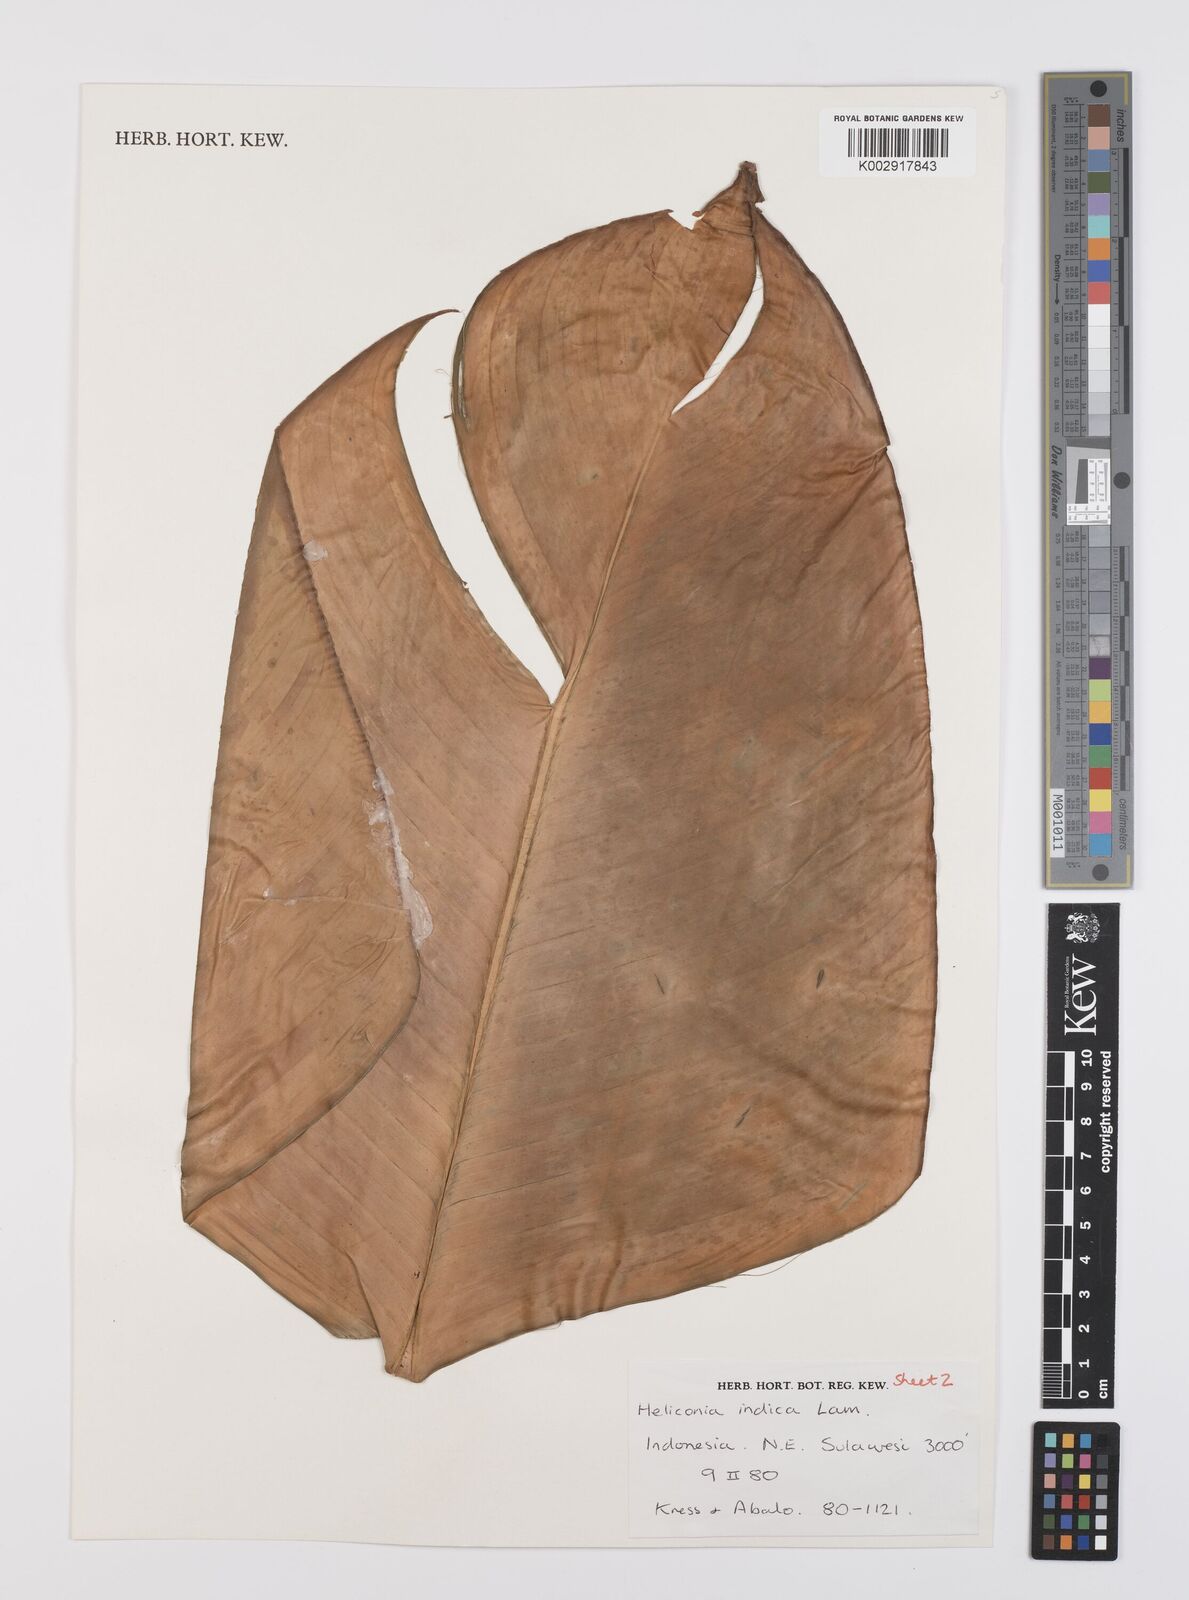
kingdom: Plantae
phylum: Tracheophyta
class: Liliopsida
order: Zingiberales
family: Heliconiaceae
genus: Heliconia
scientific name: Heliconia indica
